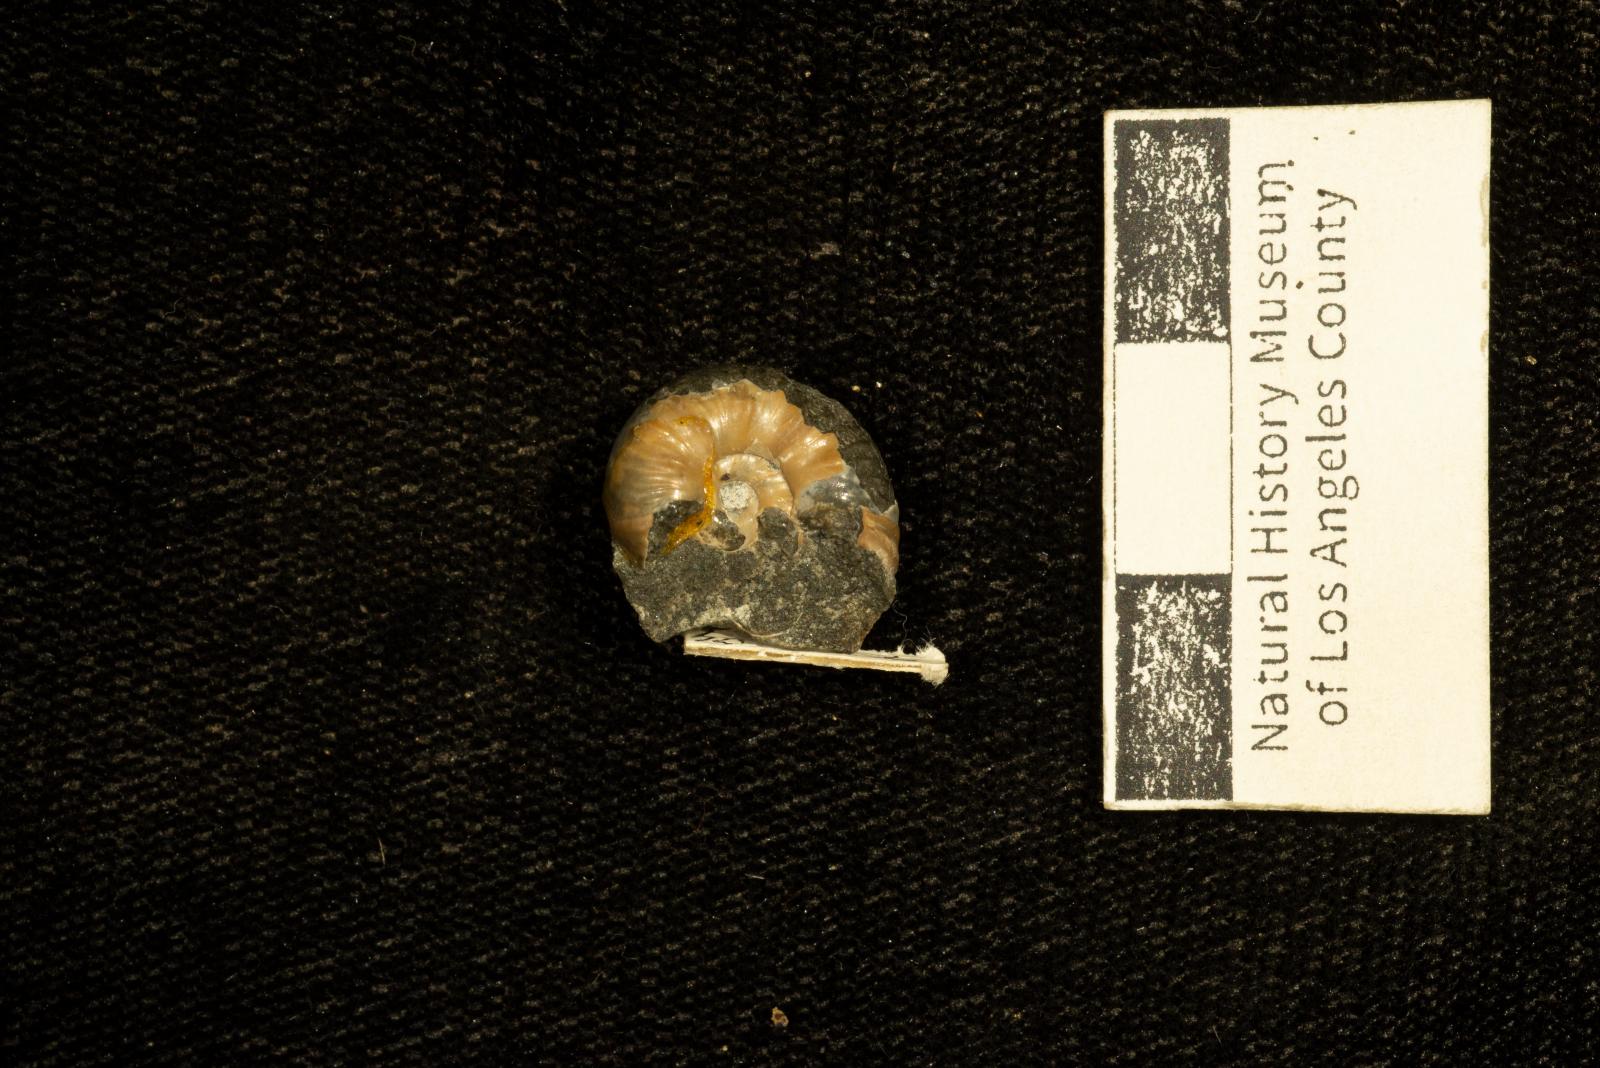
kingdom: Animalia
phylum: Mollusca
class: Cephalopoda
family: Pachydiscidae
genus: Canadoceras
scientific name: Canadoceras yokoyamai
